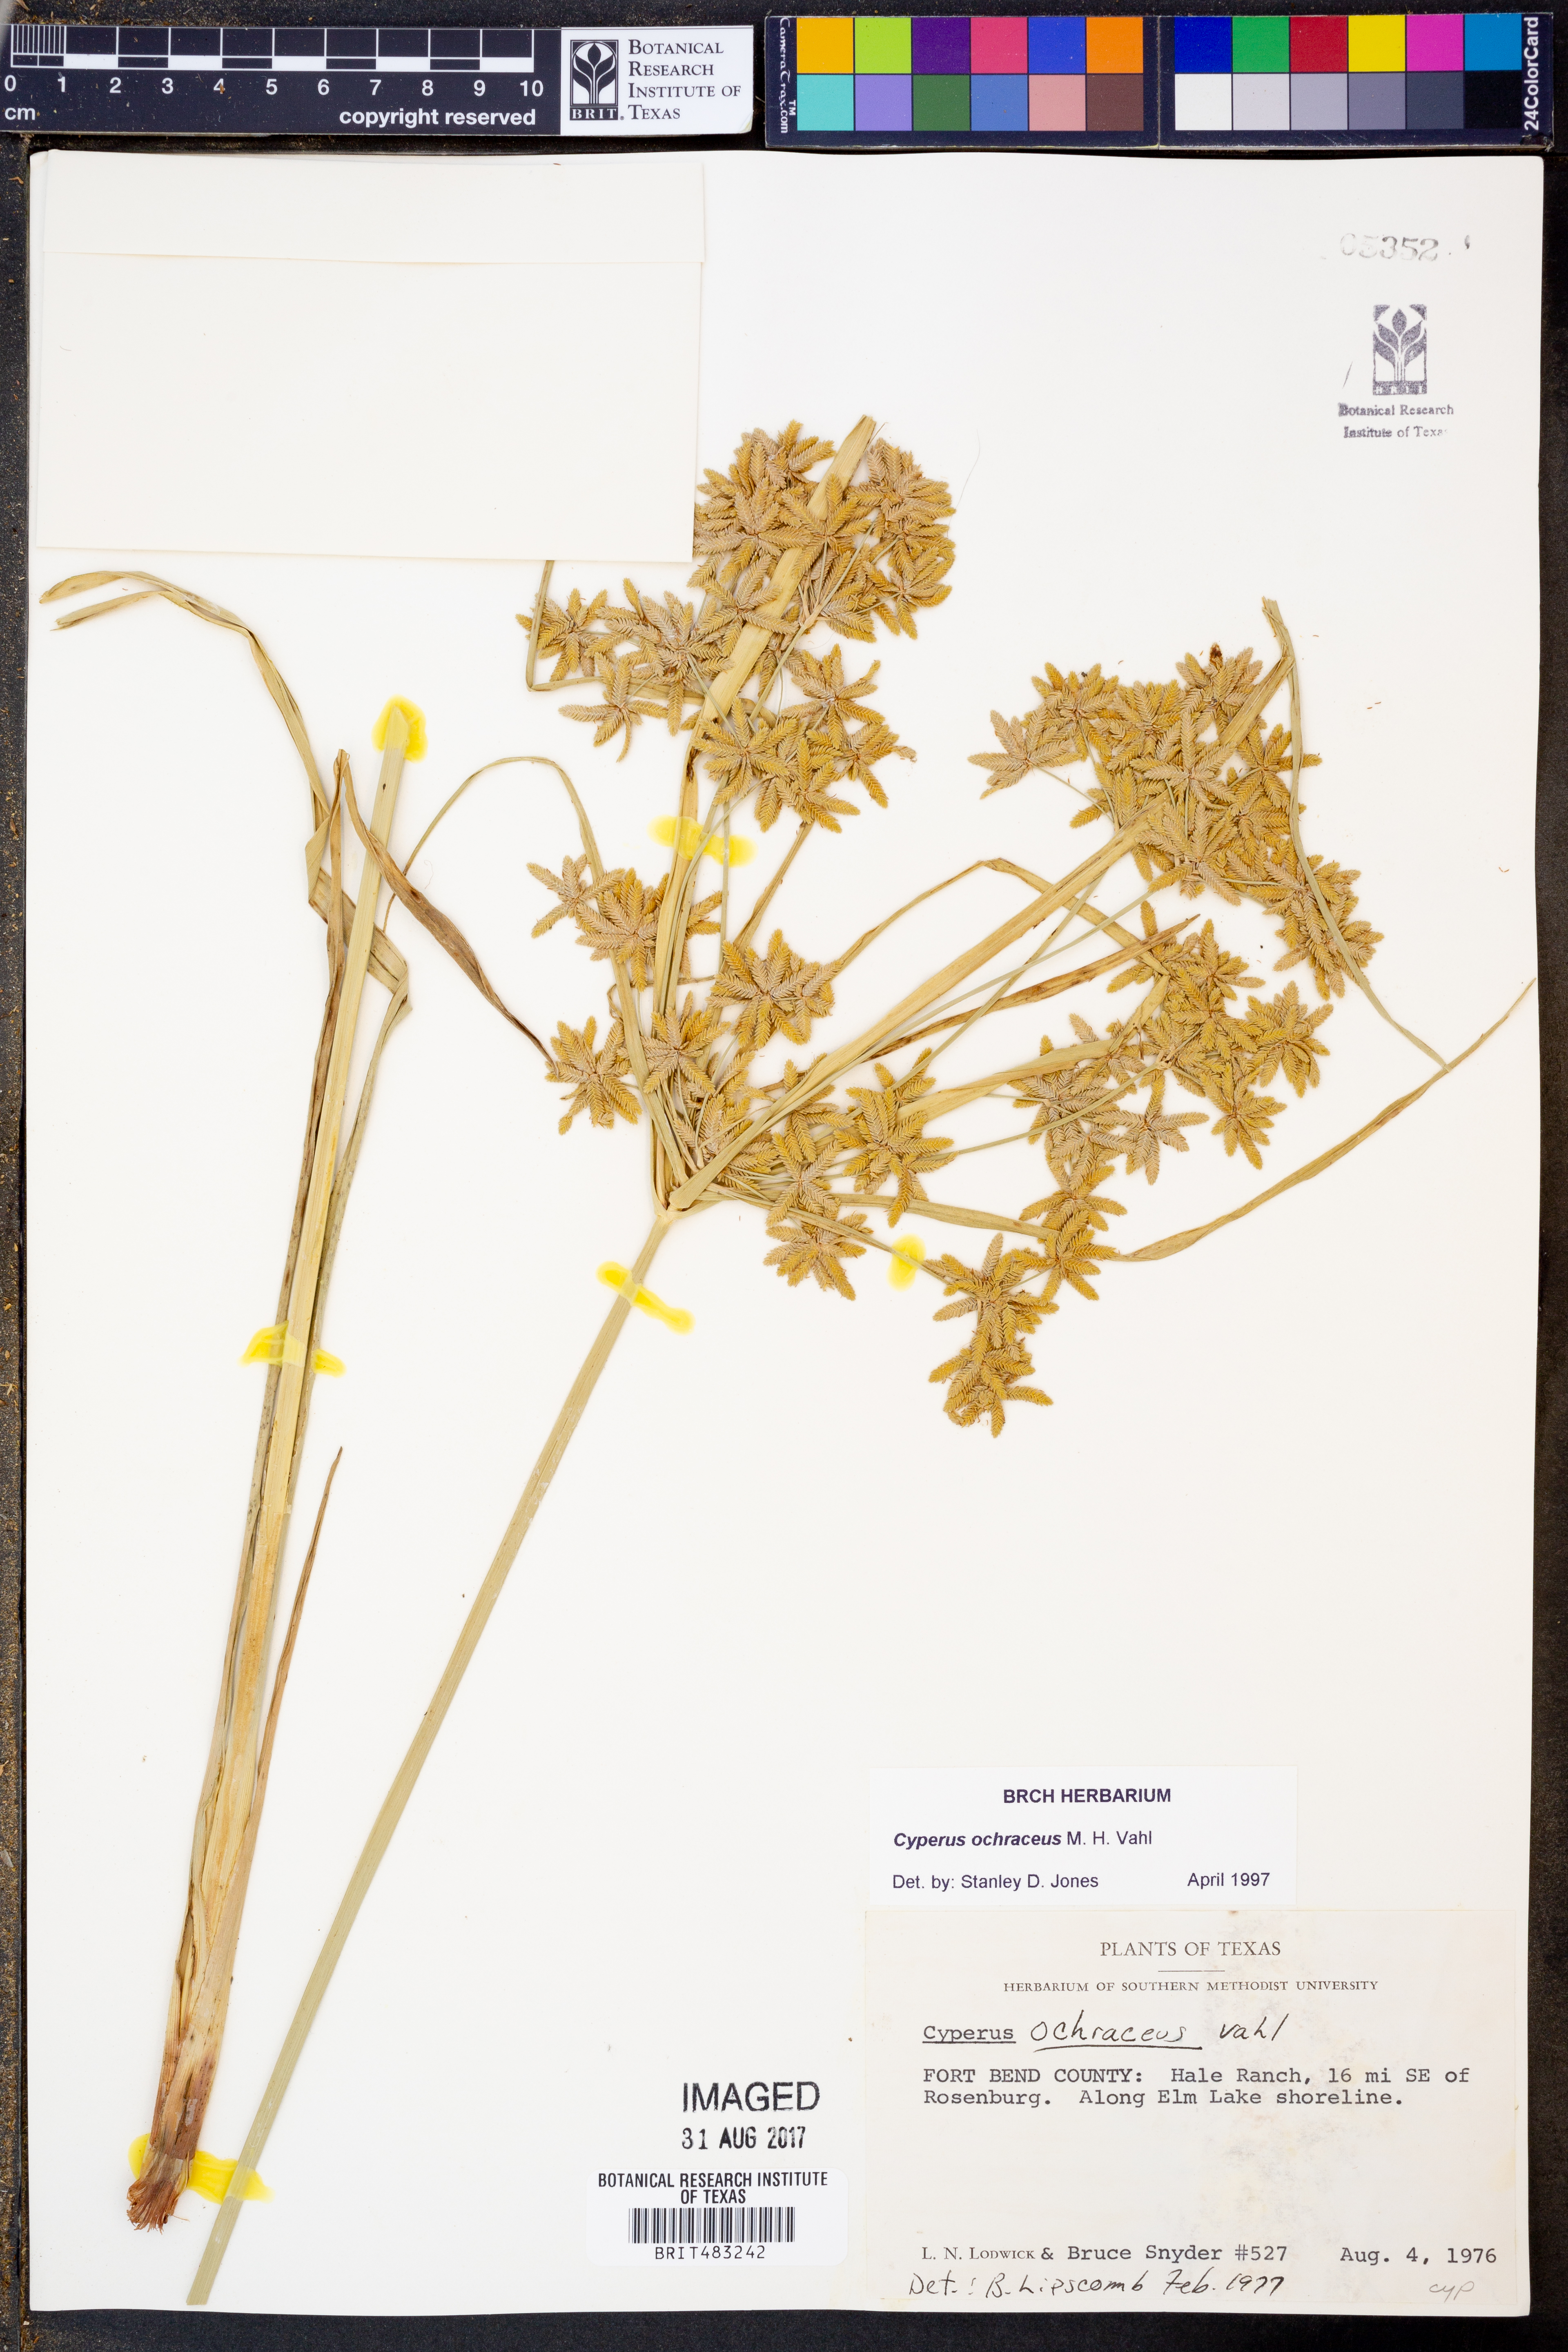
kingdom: Plantae
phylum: Tracheophyta
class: Liliopsida
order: Poales
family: Cyperaceae
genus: Cyperus
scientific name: Cyperus ochraceus
